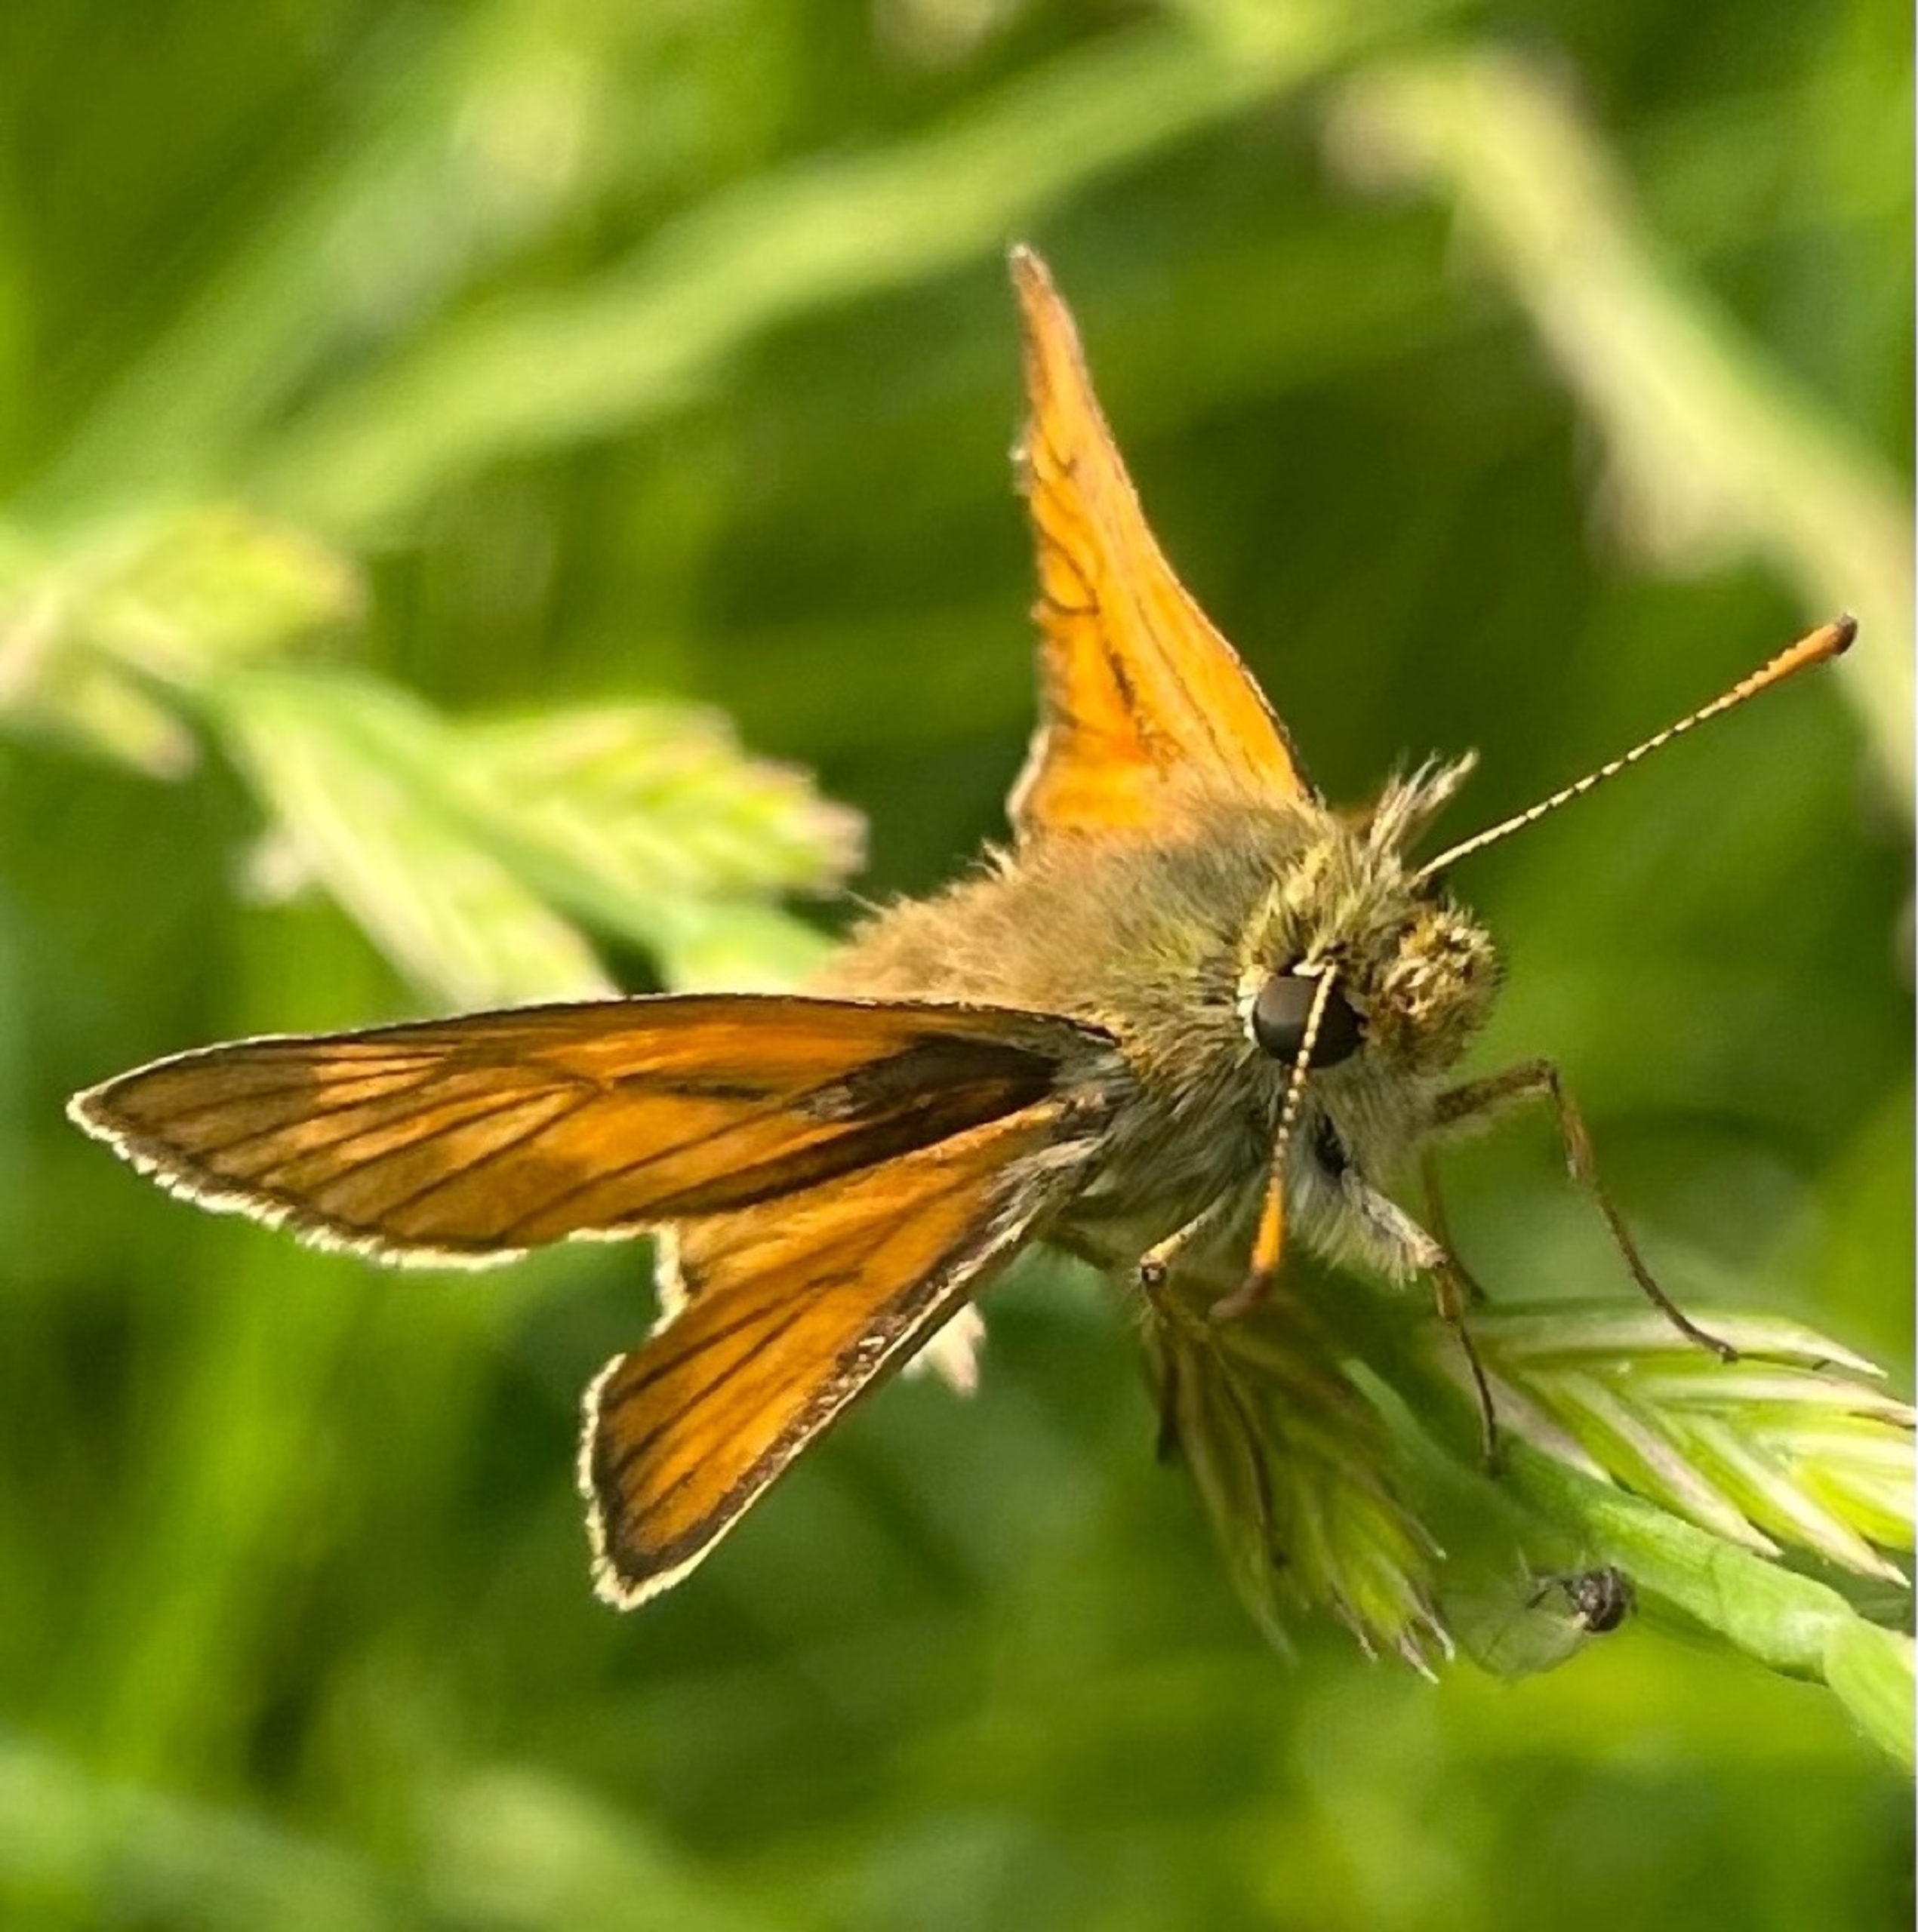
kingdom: Animalia
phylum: Arthropoda
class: Insecta
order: Lepidoptera
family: Hesperiidae
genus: Ochlodes
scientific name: Ochlodes venata
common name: Stor bredpande
